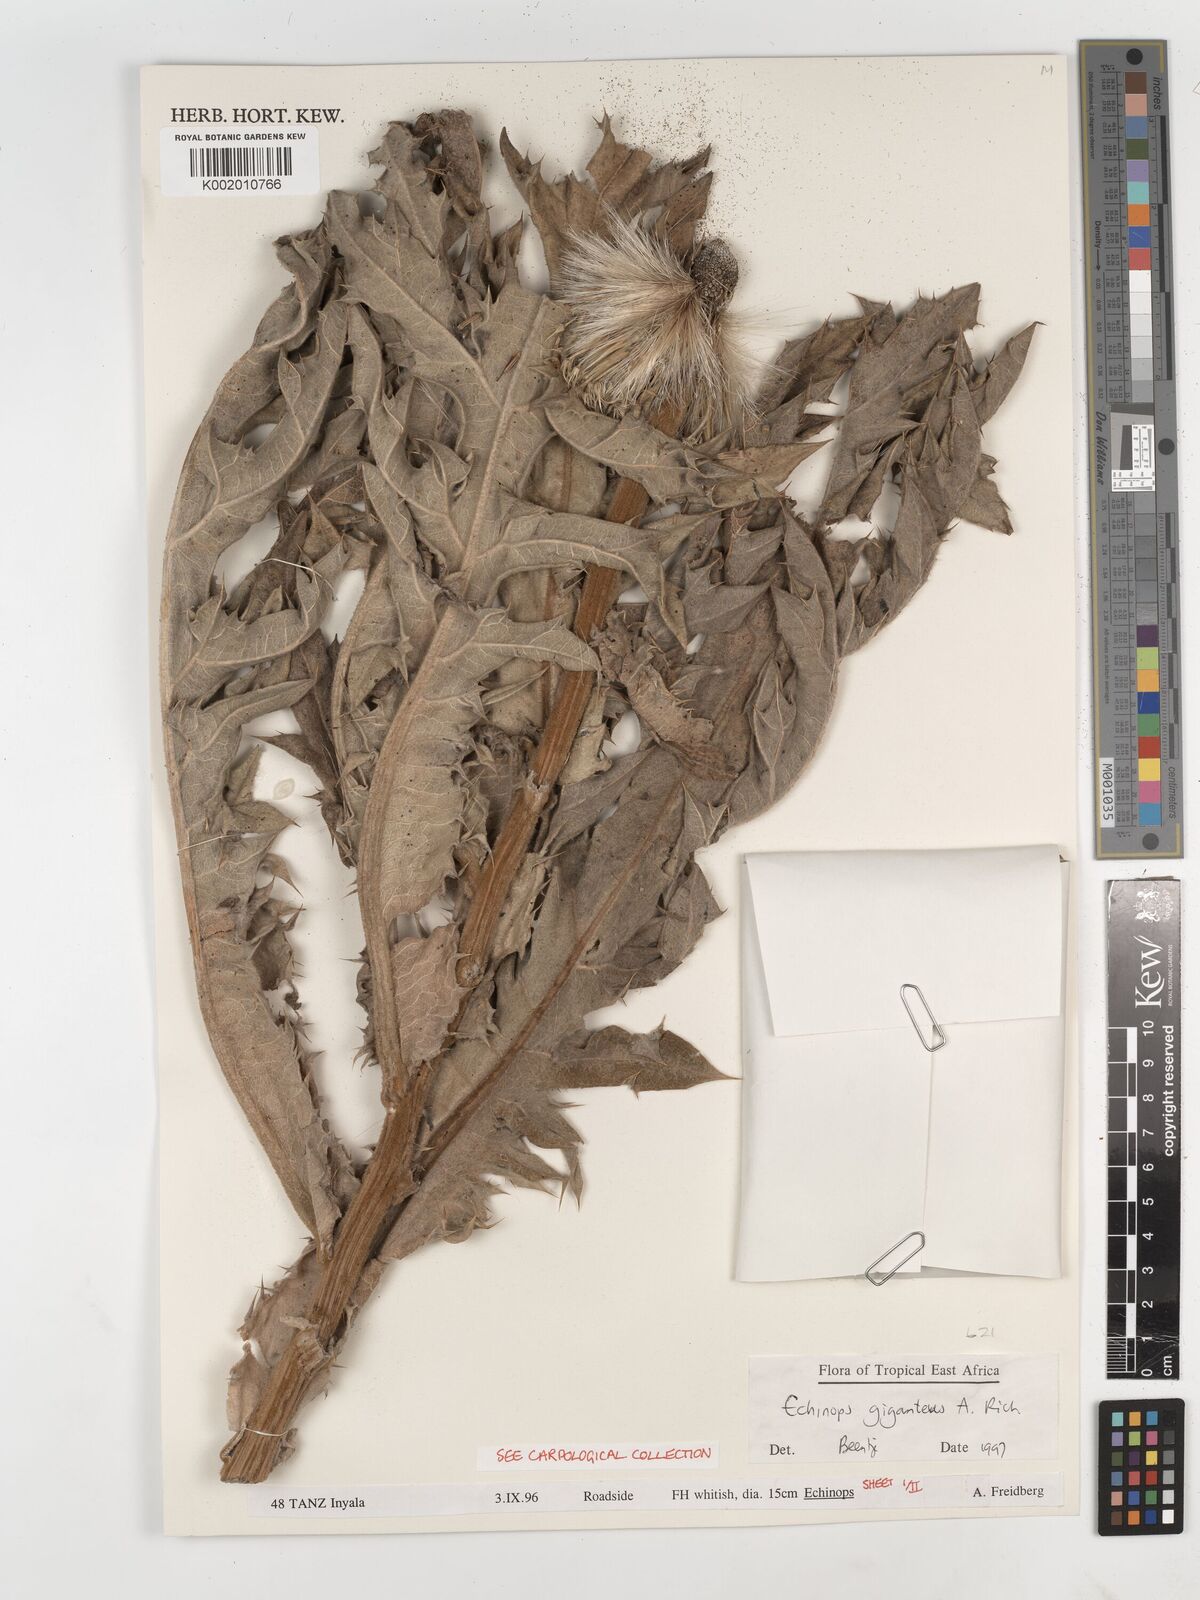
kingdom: Plantae
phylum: Tracheophyta
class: Magnoliopsida
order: Asterales
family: Asteraceae
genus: Echinops
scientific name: Echinops giganteus
